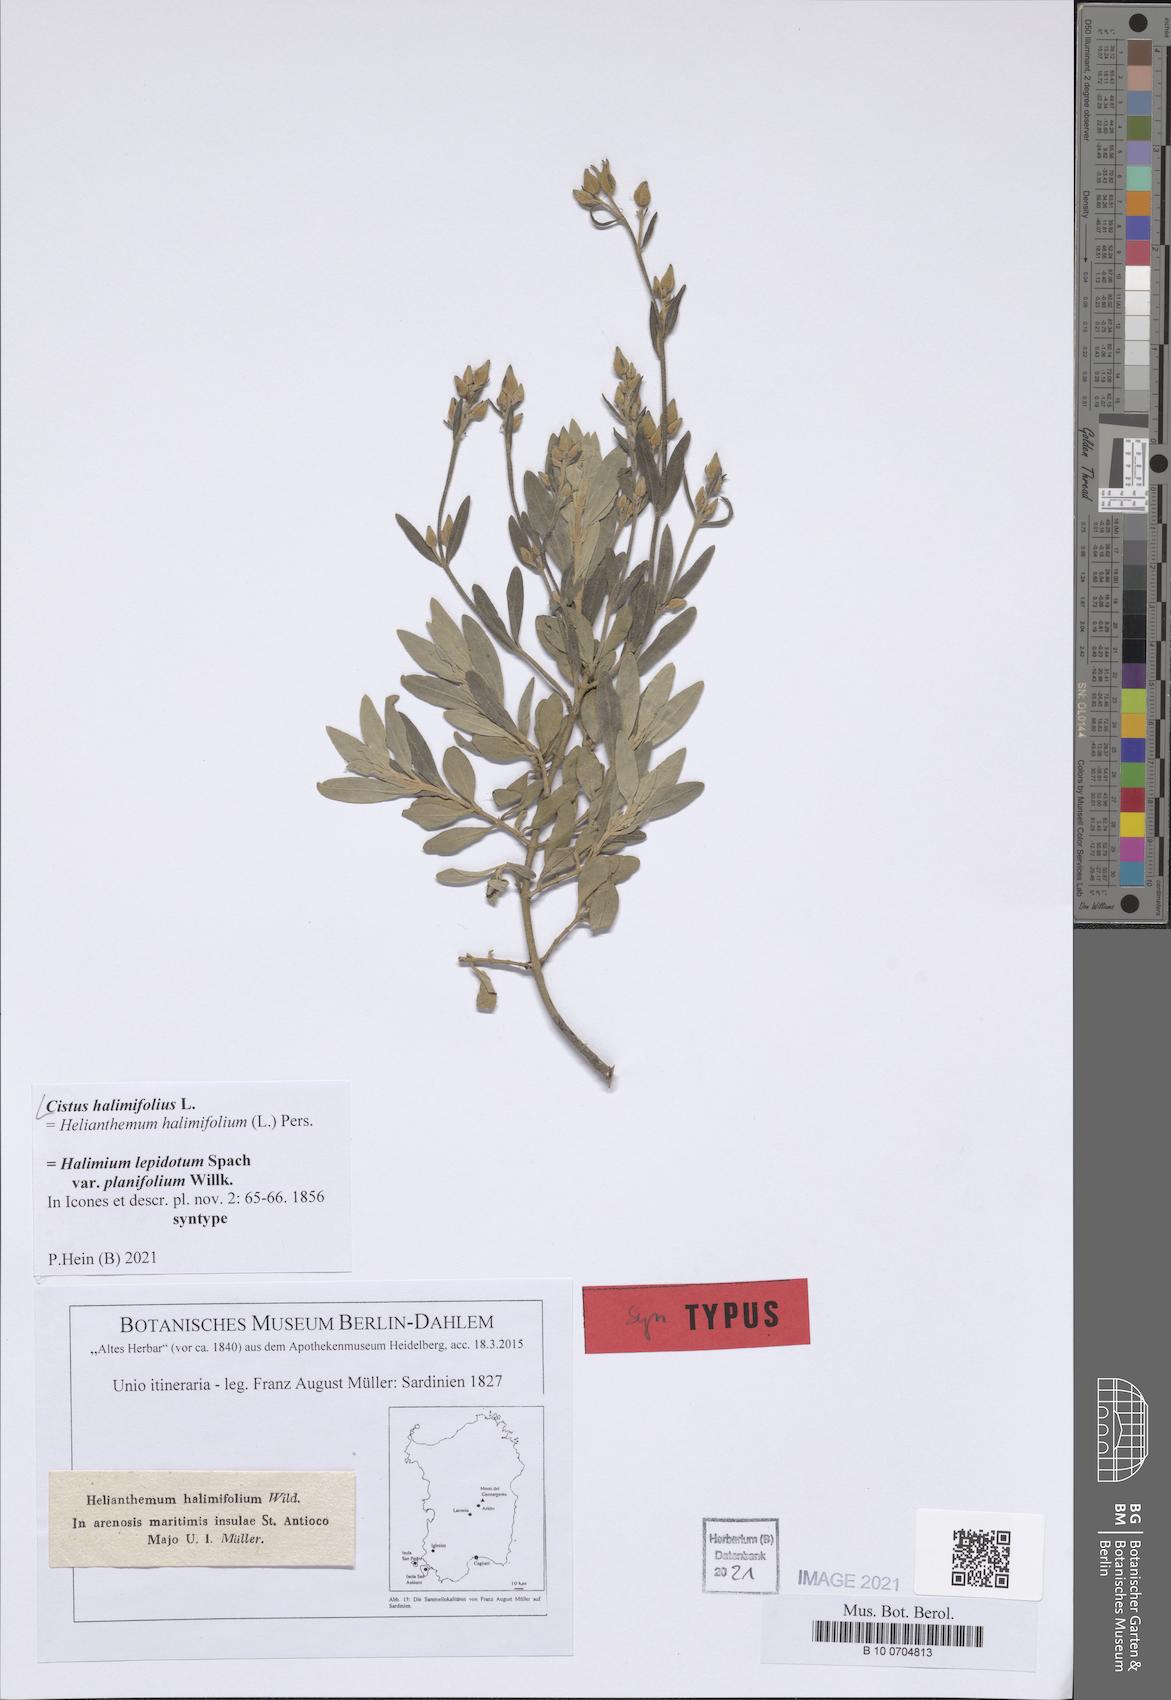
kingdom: Plantae
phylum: Tracheophyta
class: Magnoliopsida
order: Malvales
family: Cistaceae
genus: Halimium
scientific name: Halimium halimifolium
